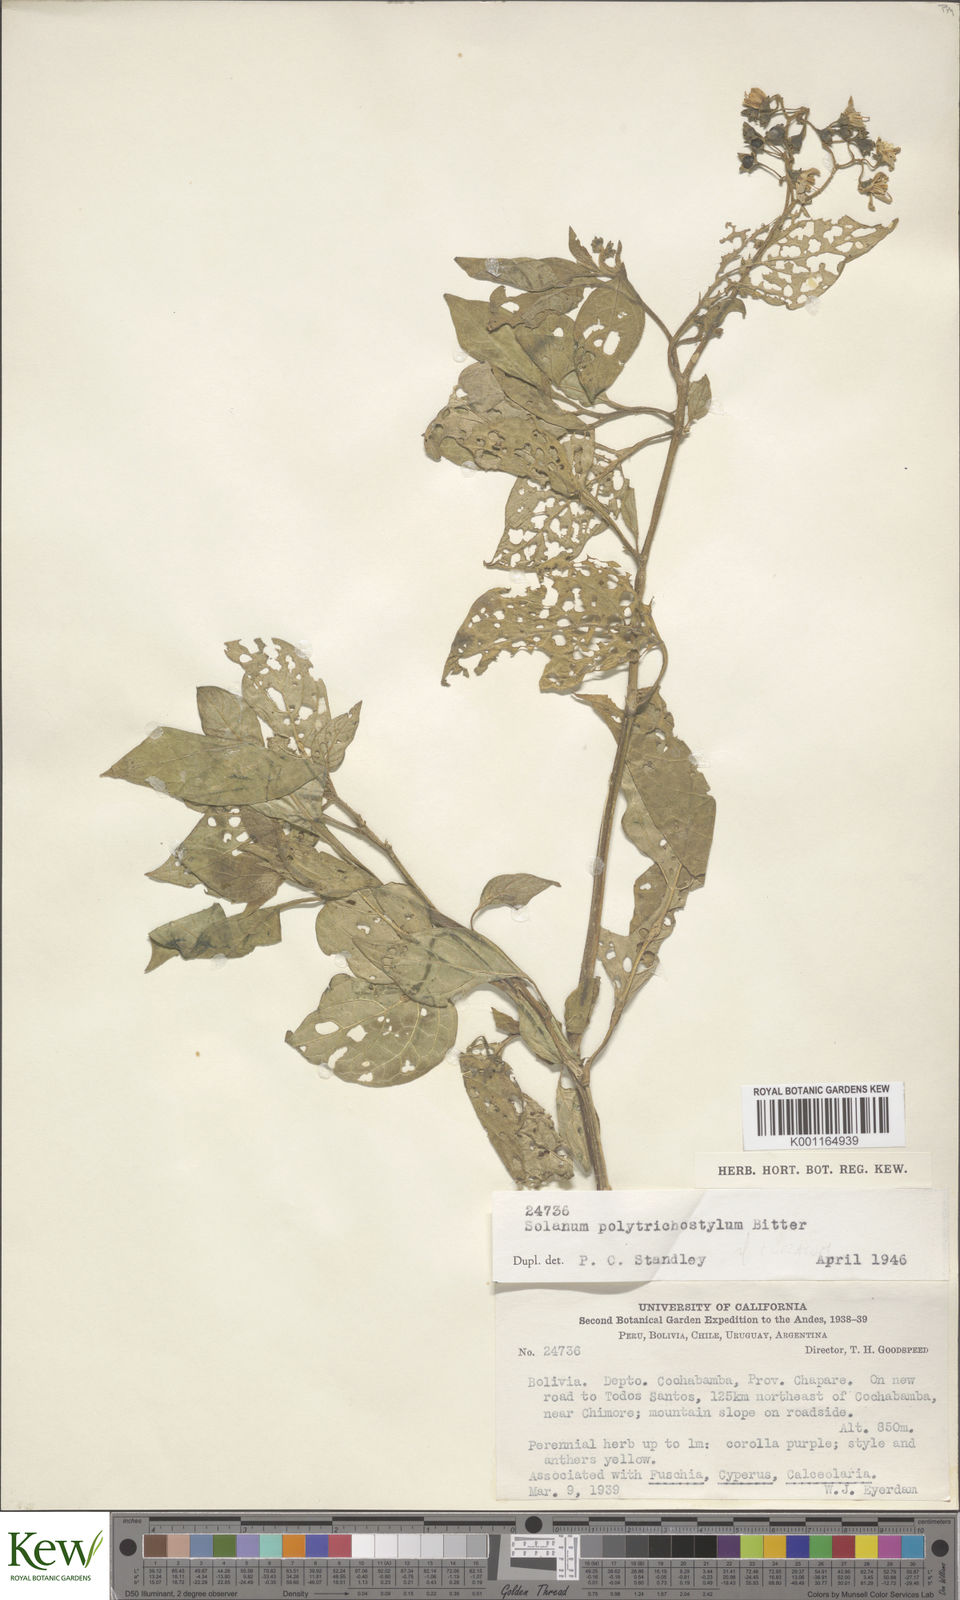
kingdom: Plantae
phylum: Tracheophyta
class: Magnoliopsida
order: Solanales
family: Solanaceae
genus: Solanum
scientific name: Solanum nudum
